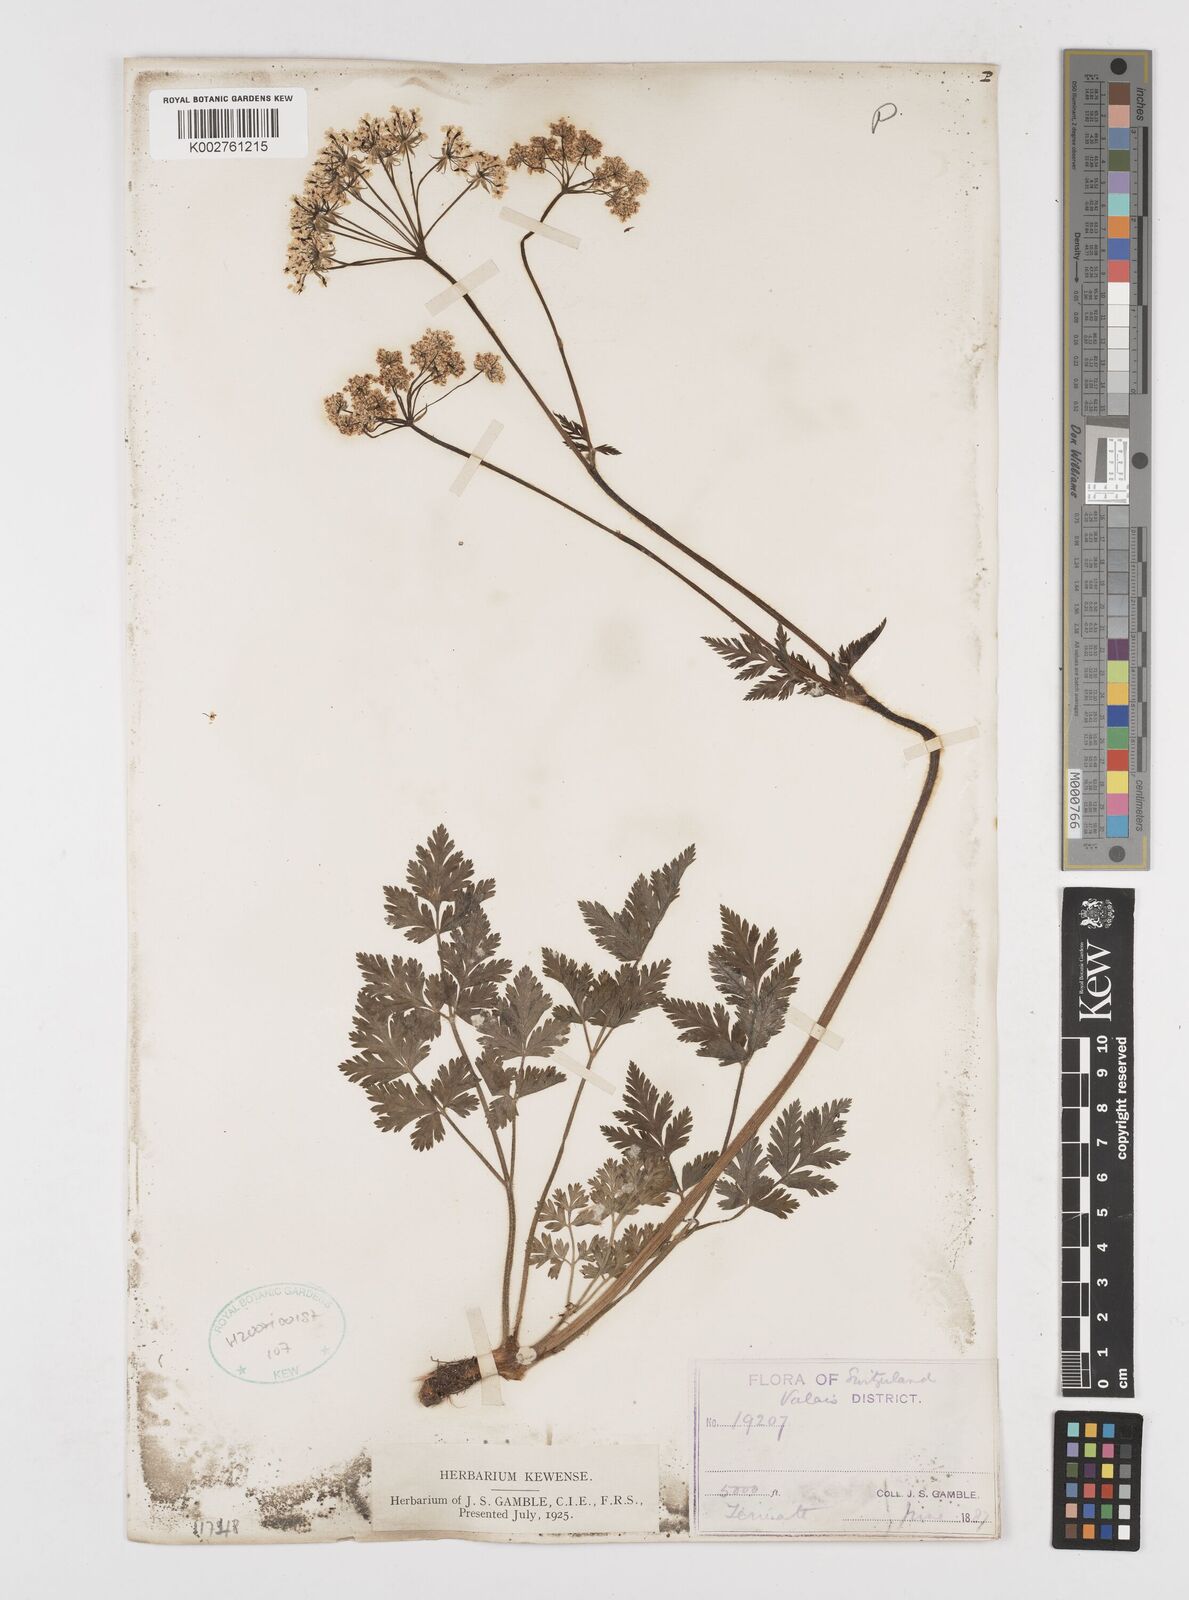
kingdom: Plantae
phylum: Tracheophyta
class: Magnoliopsida
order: Apiales
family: Apiaceae
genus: Chaerophyllum
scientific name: Chaerophyllum elegans
